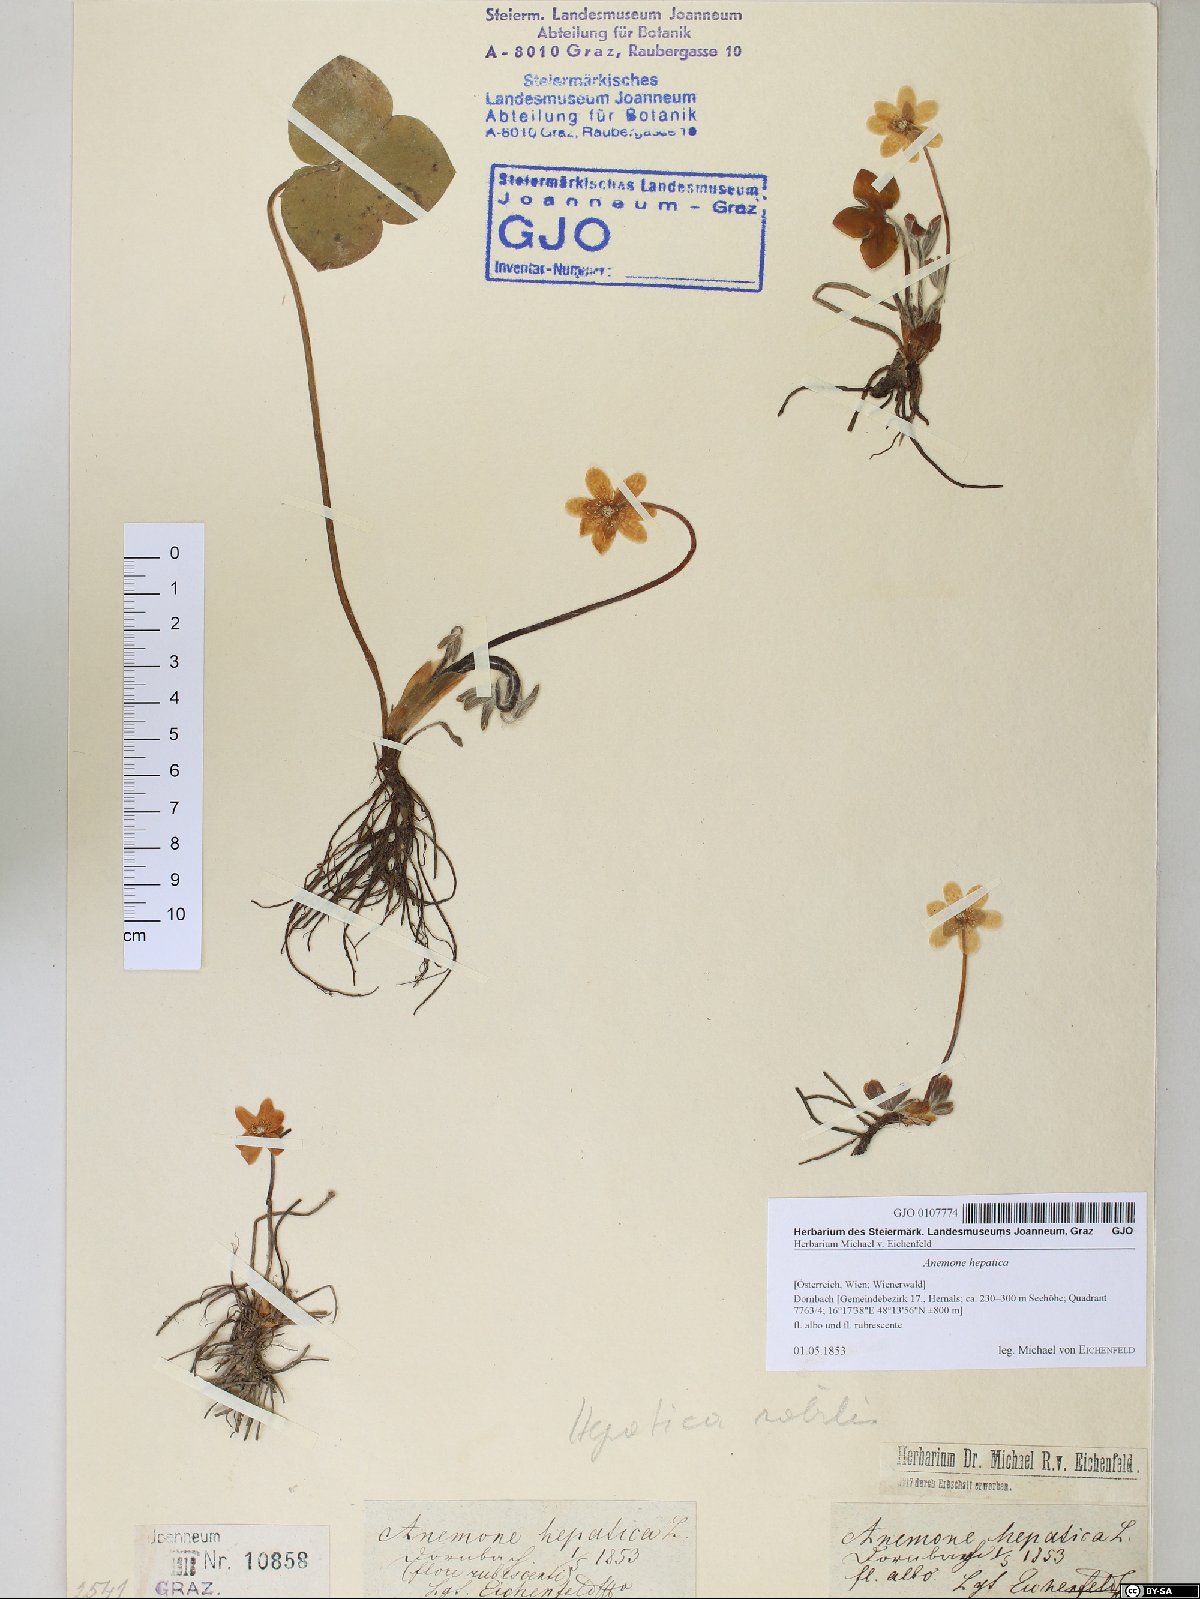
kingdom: Plantae
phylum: Tracheophyta
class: Magnoliopsida
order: Ranunculales
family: Ranunculaceae
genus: Hepatica
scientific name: Hepatica nobilis
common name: Liverleaf
